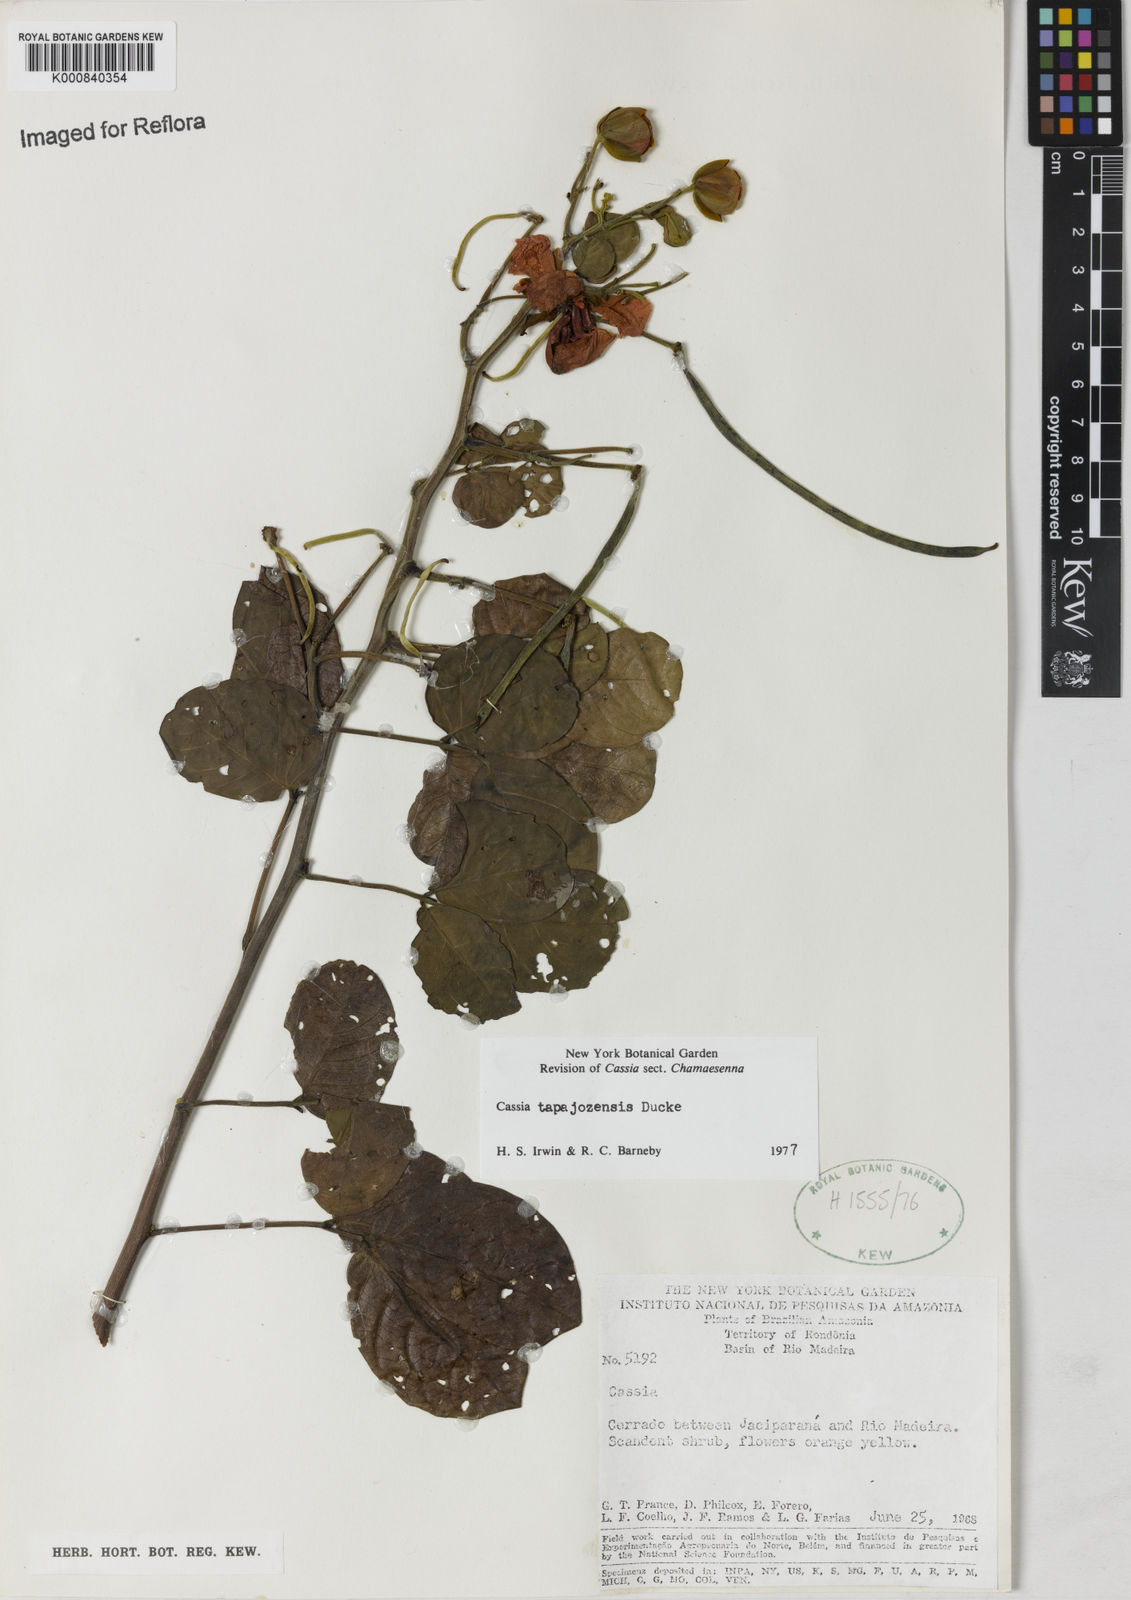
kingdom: Plantae
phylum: Tracheophyta
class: Magnoliopsida
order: Fabales
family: Fabaceae
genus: Senna
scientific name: Senna tapajozensis
